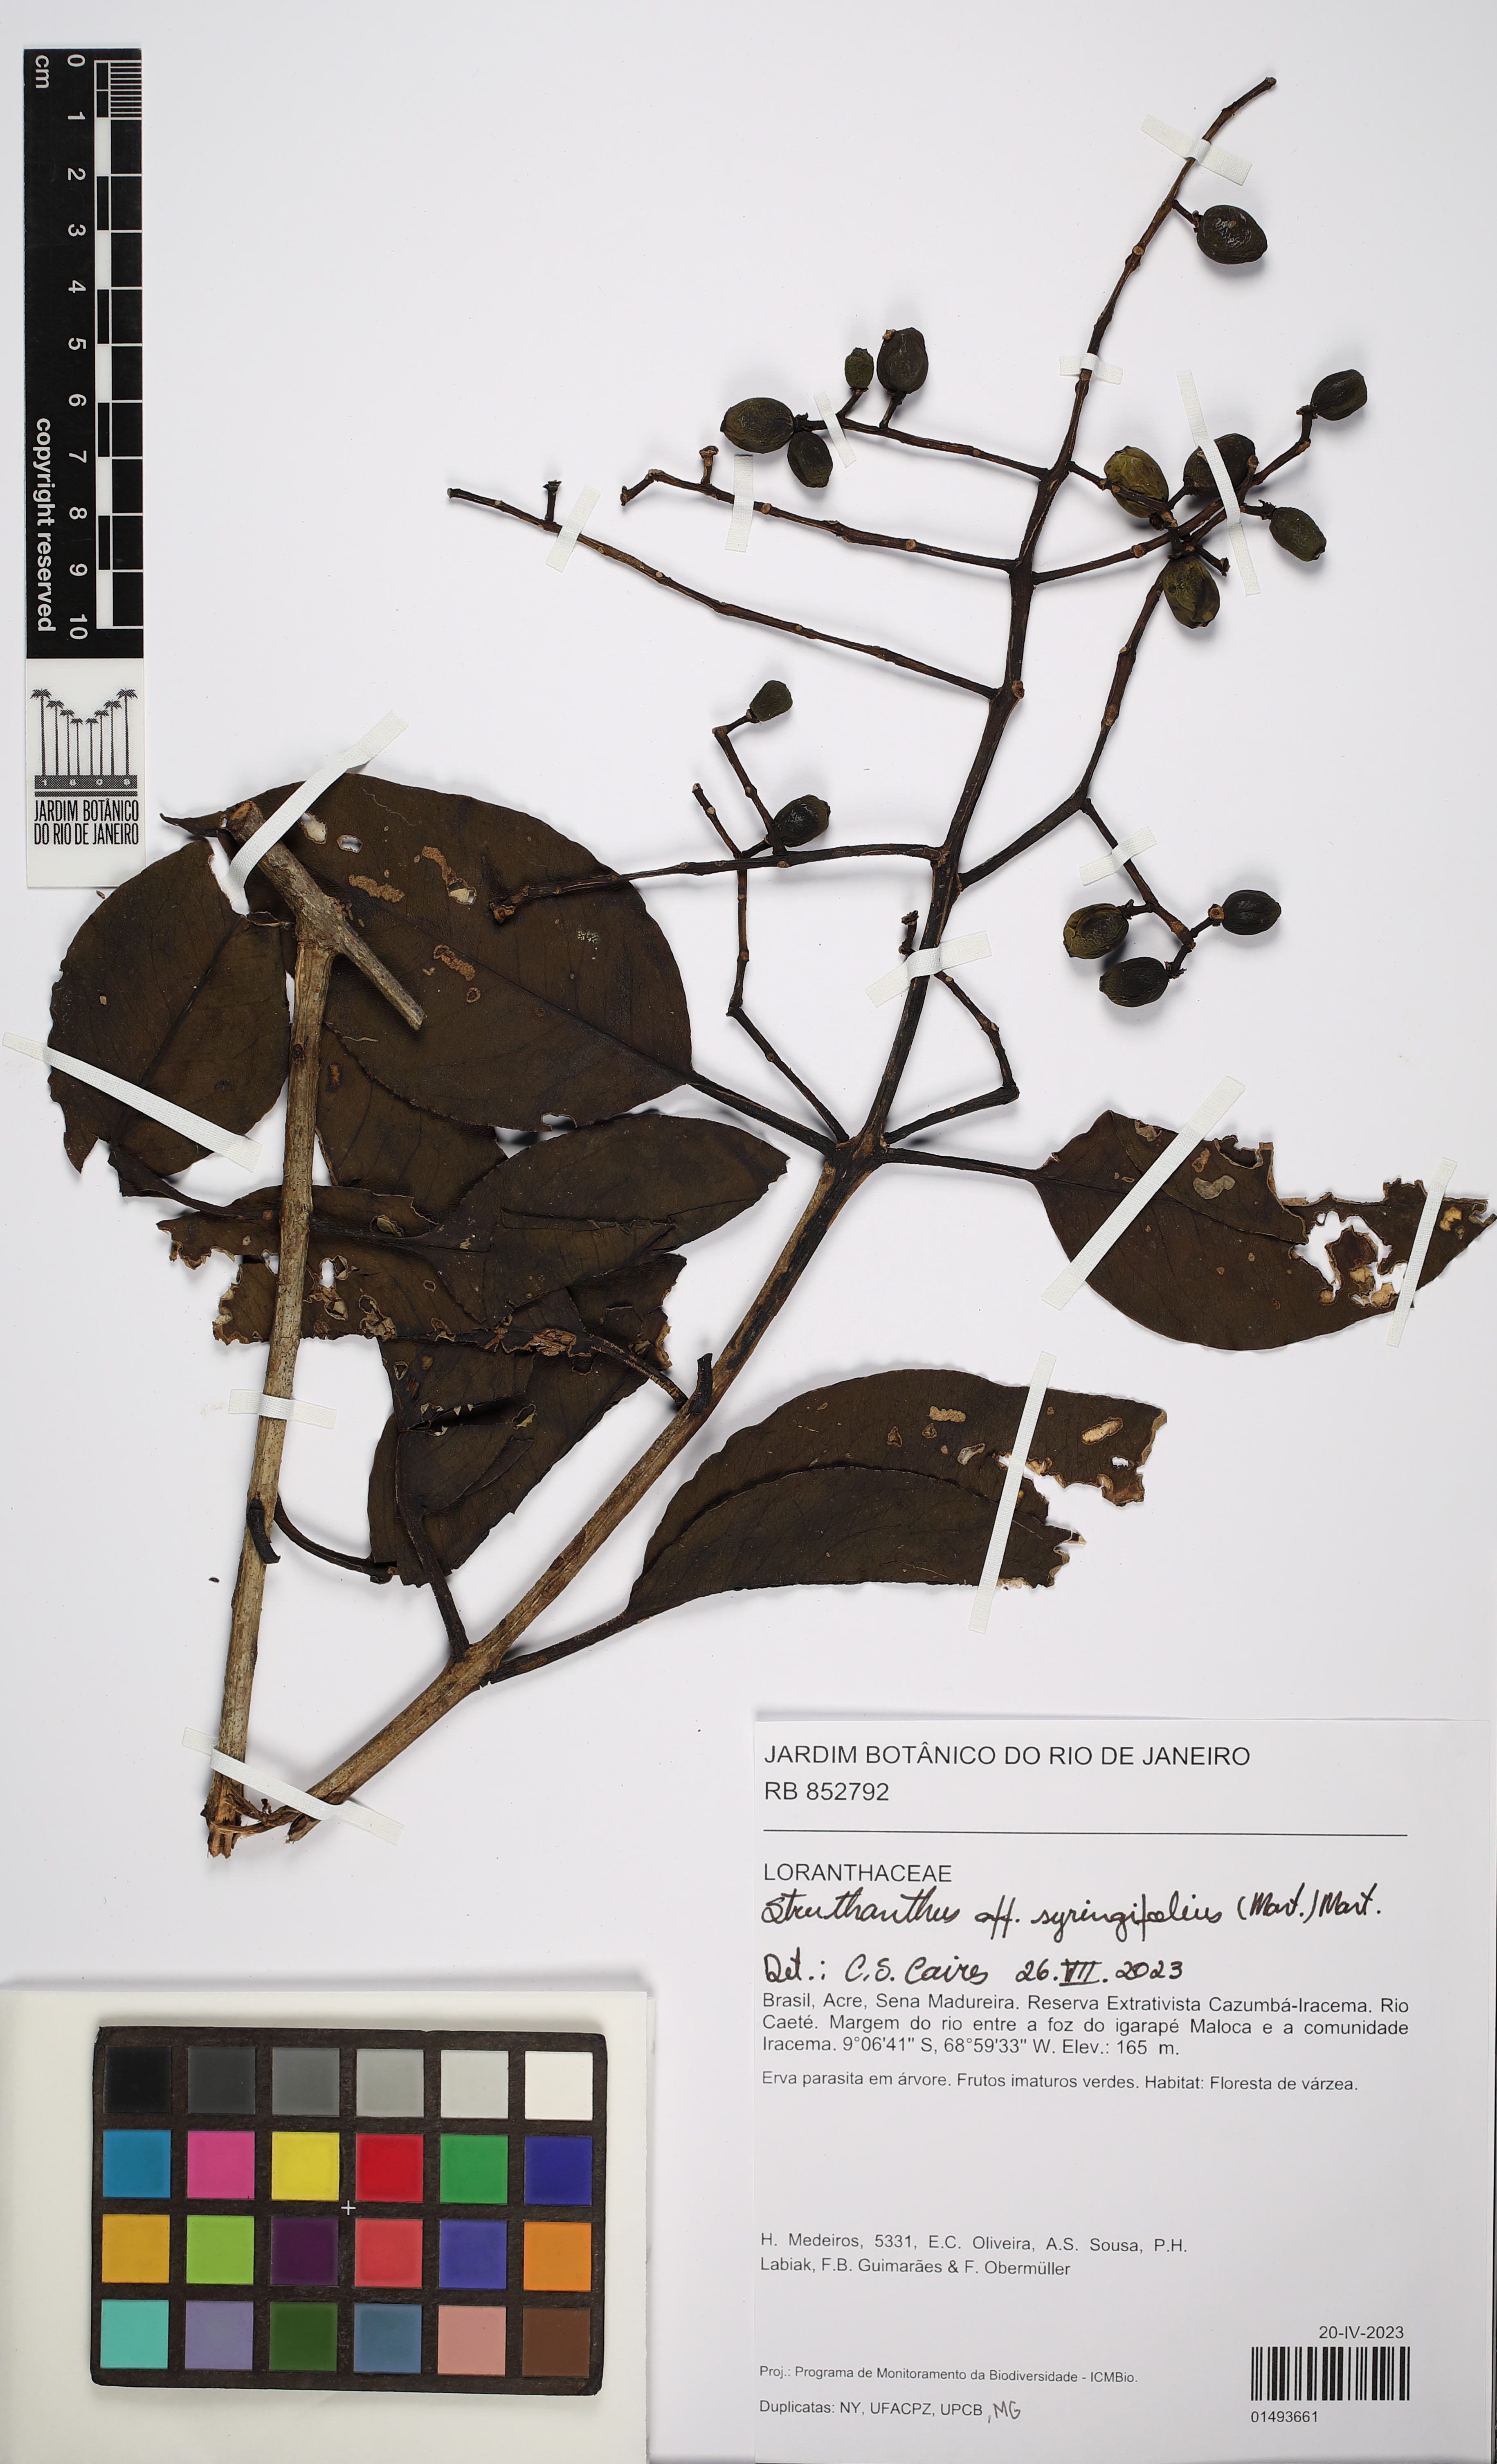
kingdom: Plantae
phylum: Tracheophyta
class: Magnoliopsida
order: Santalales
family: Loranthaceae
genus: Struthanthus
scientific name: Struthanthus syringifolius
